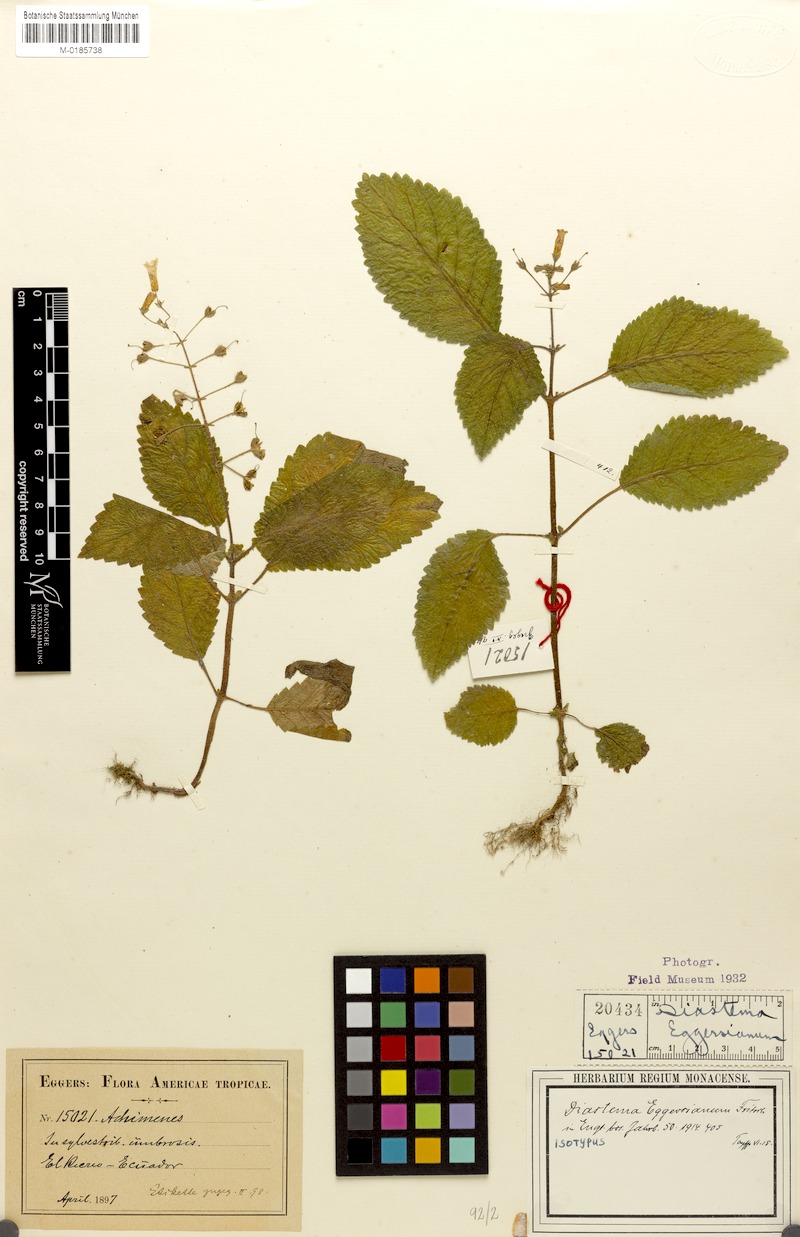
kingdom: Plantae
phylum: Tracheophyta
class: Magnoliopsida
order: Lamiales
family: Gesneriaceae
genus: Diastema
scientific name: Diastema eggersianum
